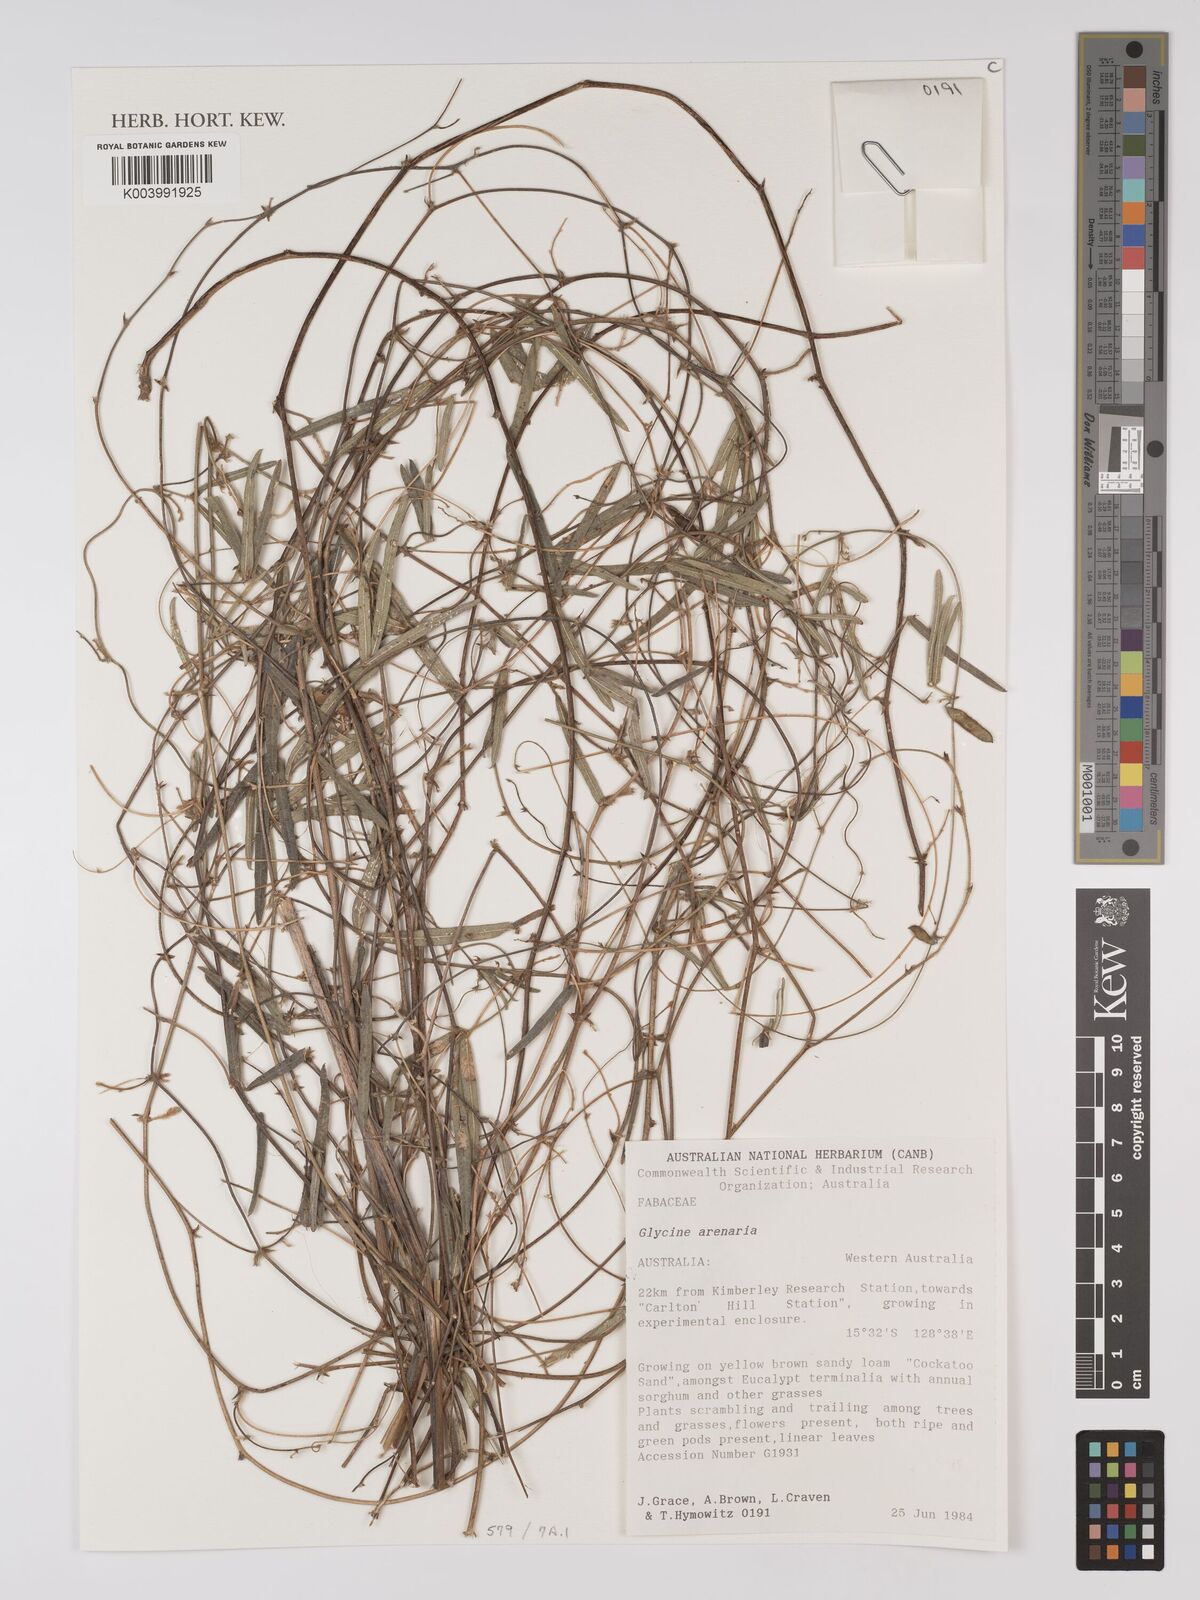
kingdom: Plantae
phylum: Tracheophyta
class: Magnoliopsida
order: Fabales
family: Fabaceae
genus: Glycine
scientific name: Glycine arenaria
